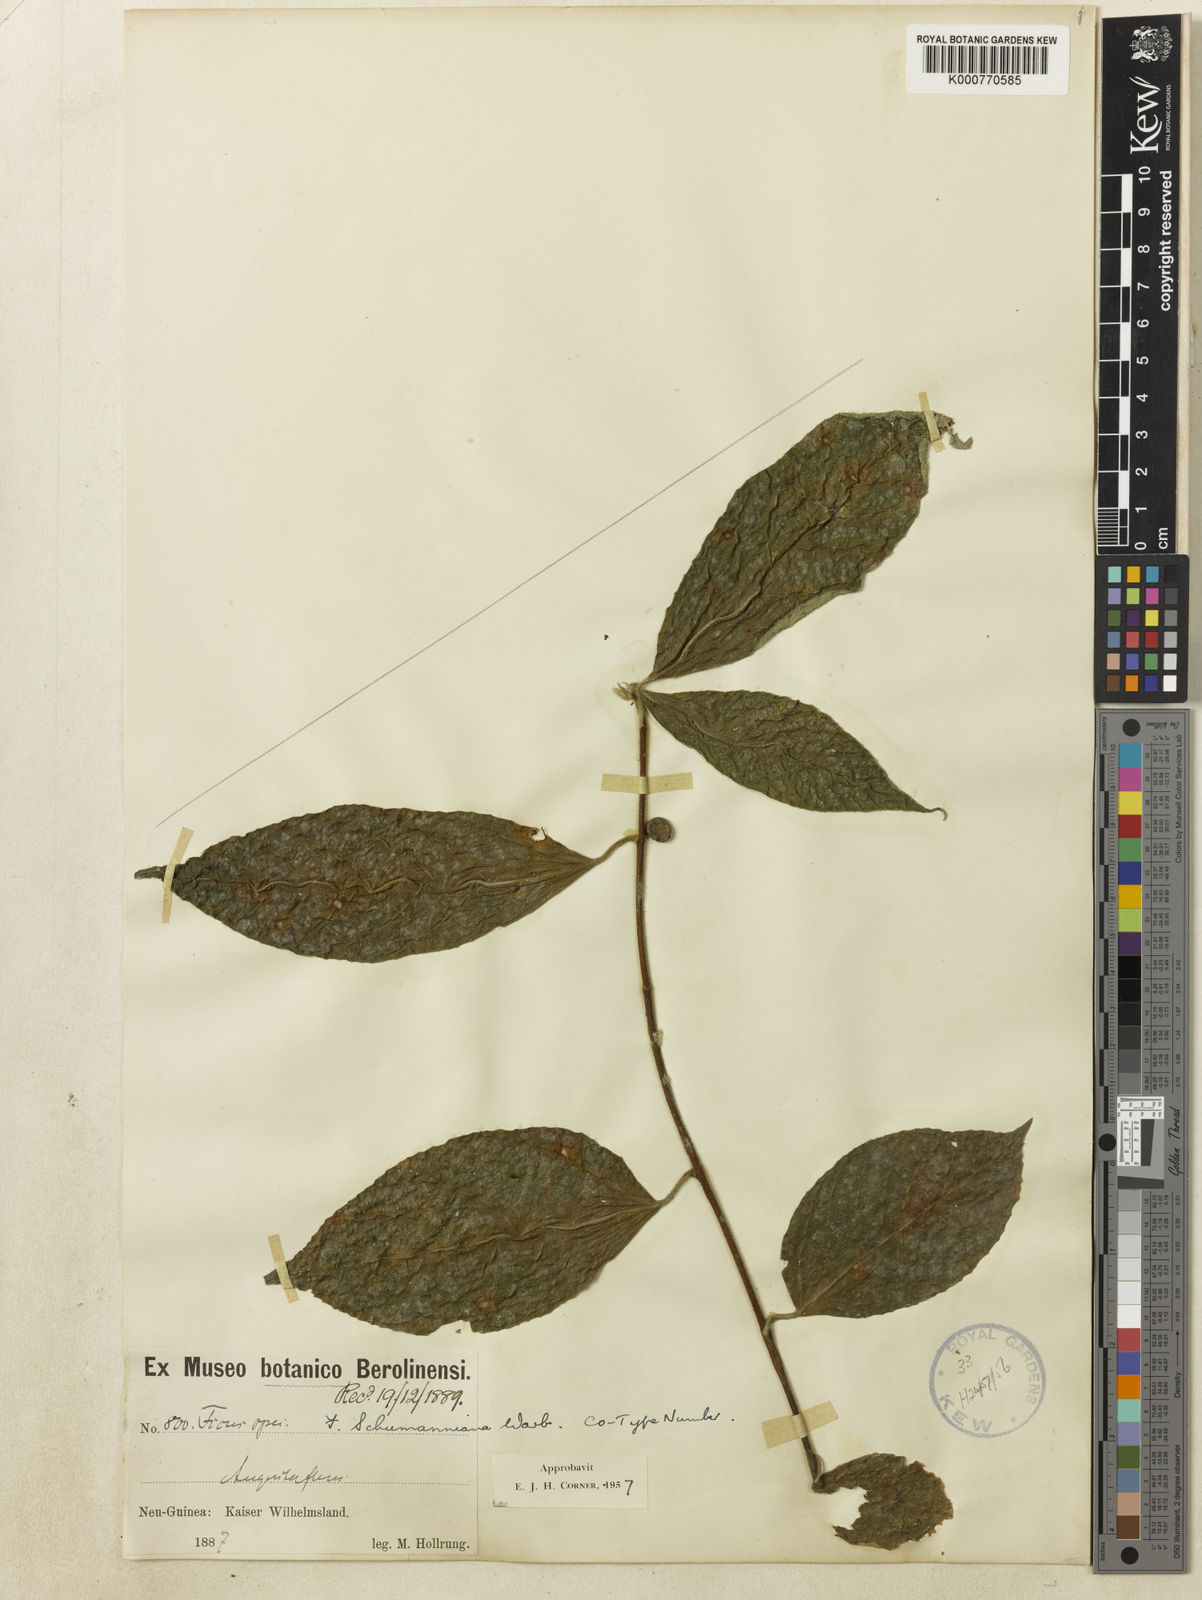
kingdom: Plantae
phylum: Tracheophyta
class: Magnoliopsida
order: Rosales
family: Moraceae
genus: Ficus
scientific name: Ficus schumanniana
